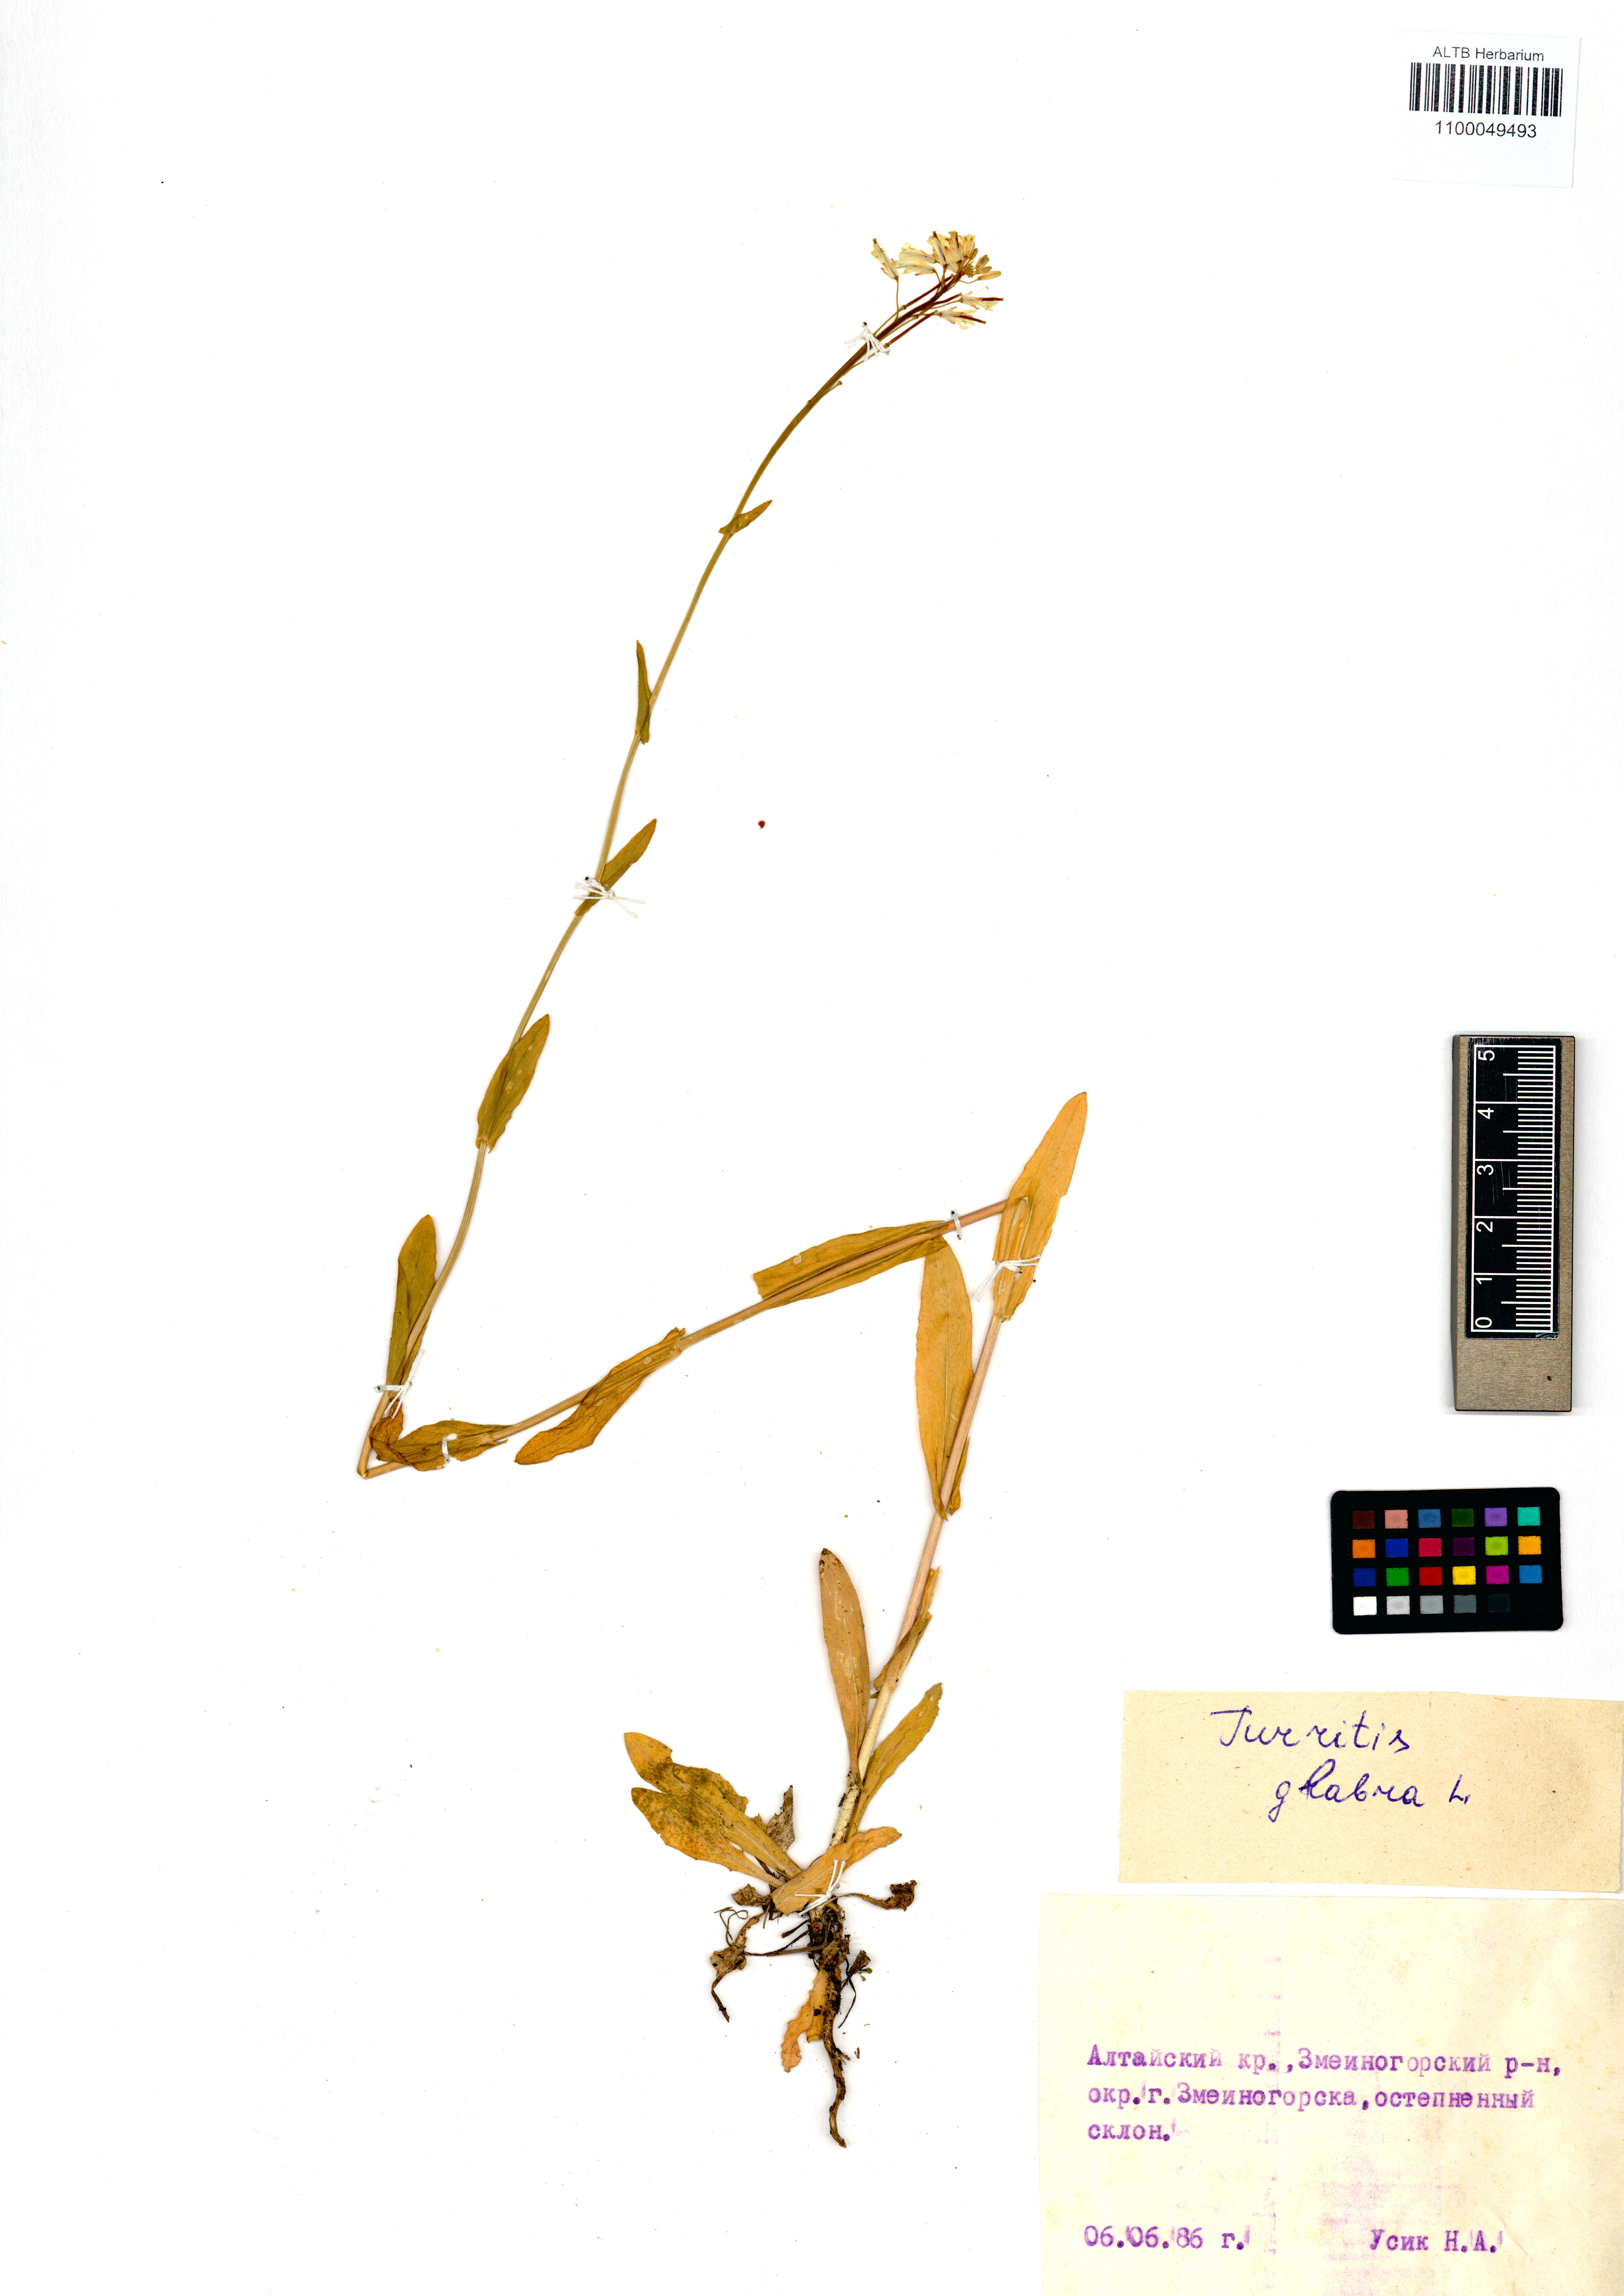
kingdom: Plantae
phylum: Tracheophyta
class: Magnoliopsida
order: Brassicales
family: Brassicaceae
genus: Turritis
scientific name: Turritis glabra
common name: Tower rockcress
